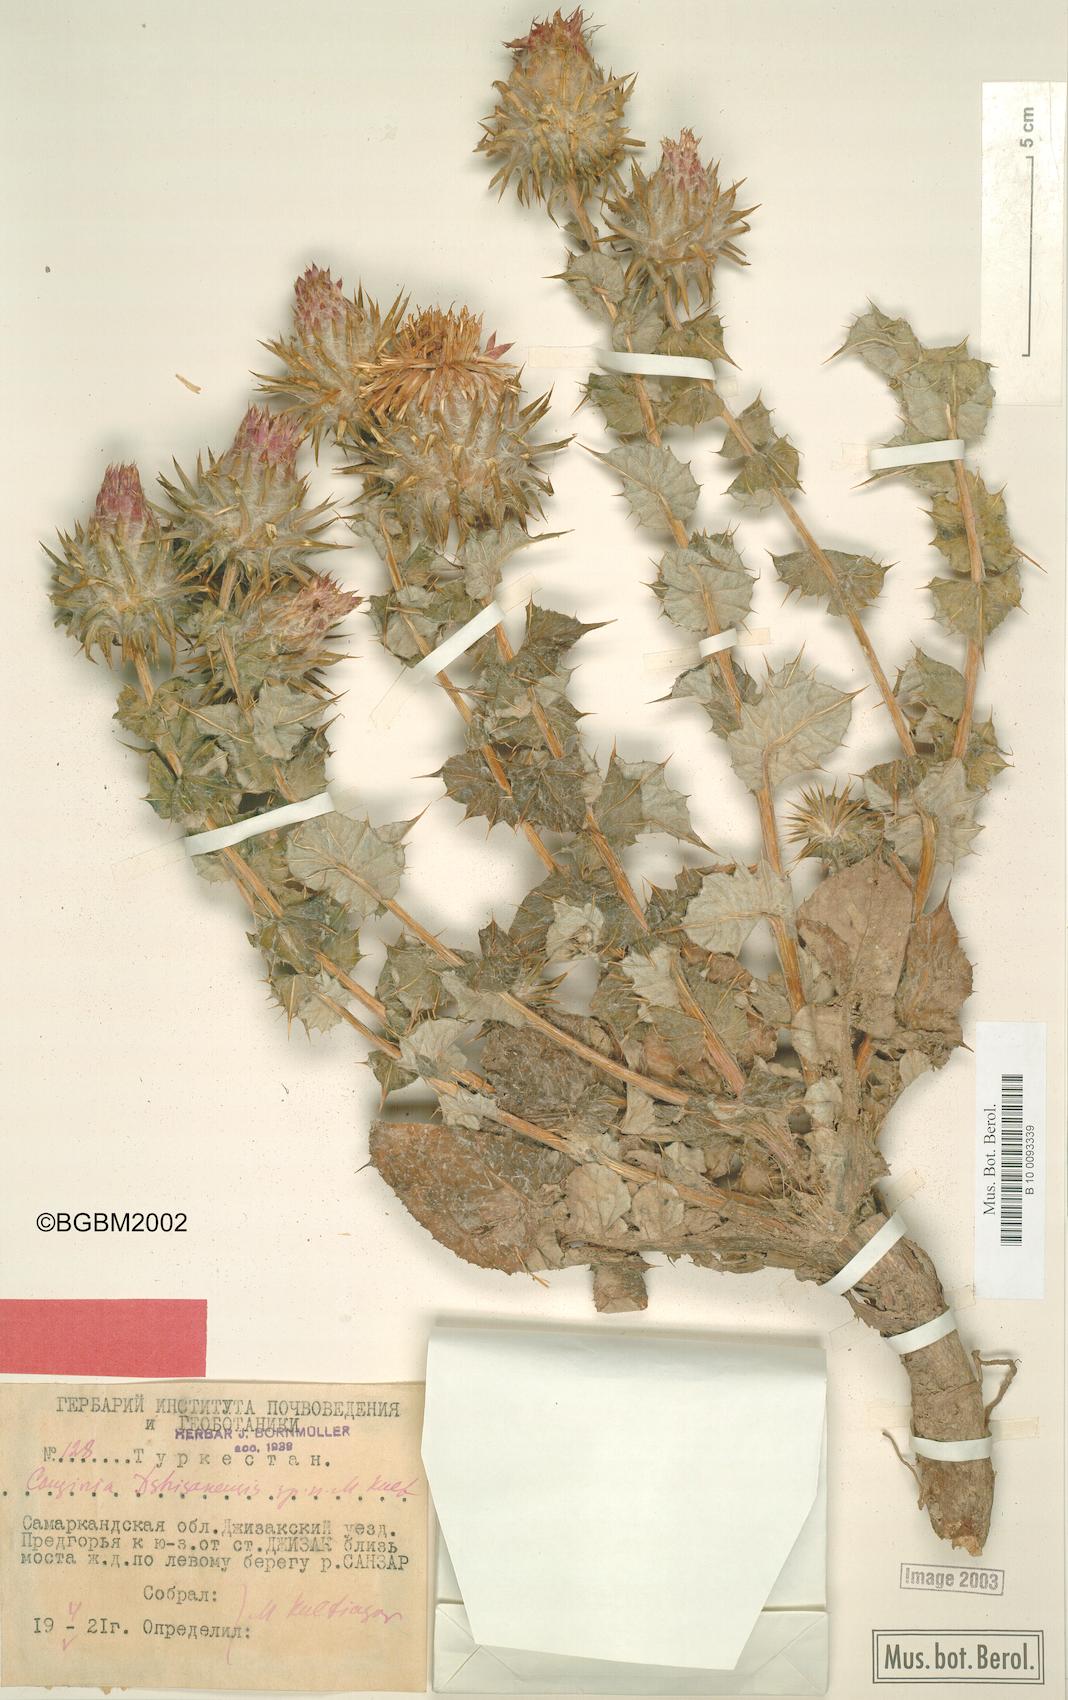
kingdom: Plantae
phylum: Tracheophyta
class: Magnoliopsida
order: Asterales
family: Asteraceae
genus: Cousinia
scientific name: Cousinia dshisakensis
